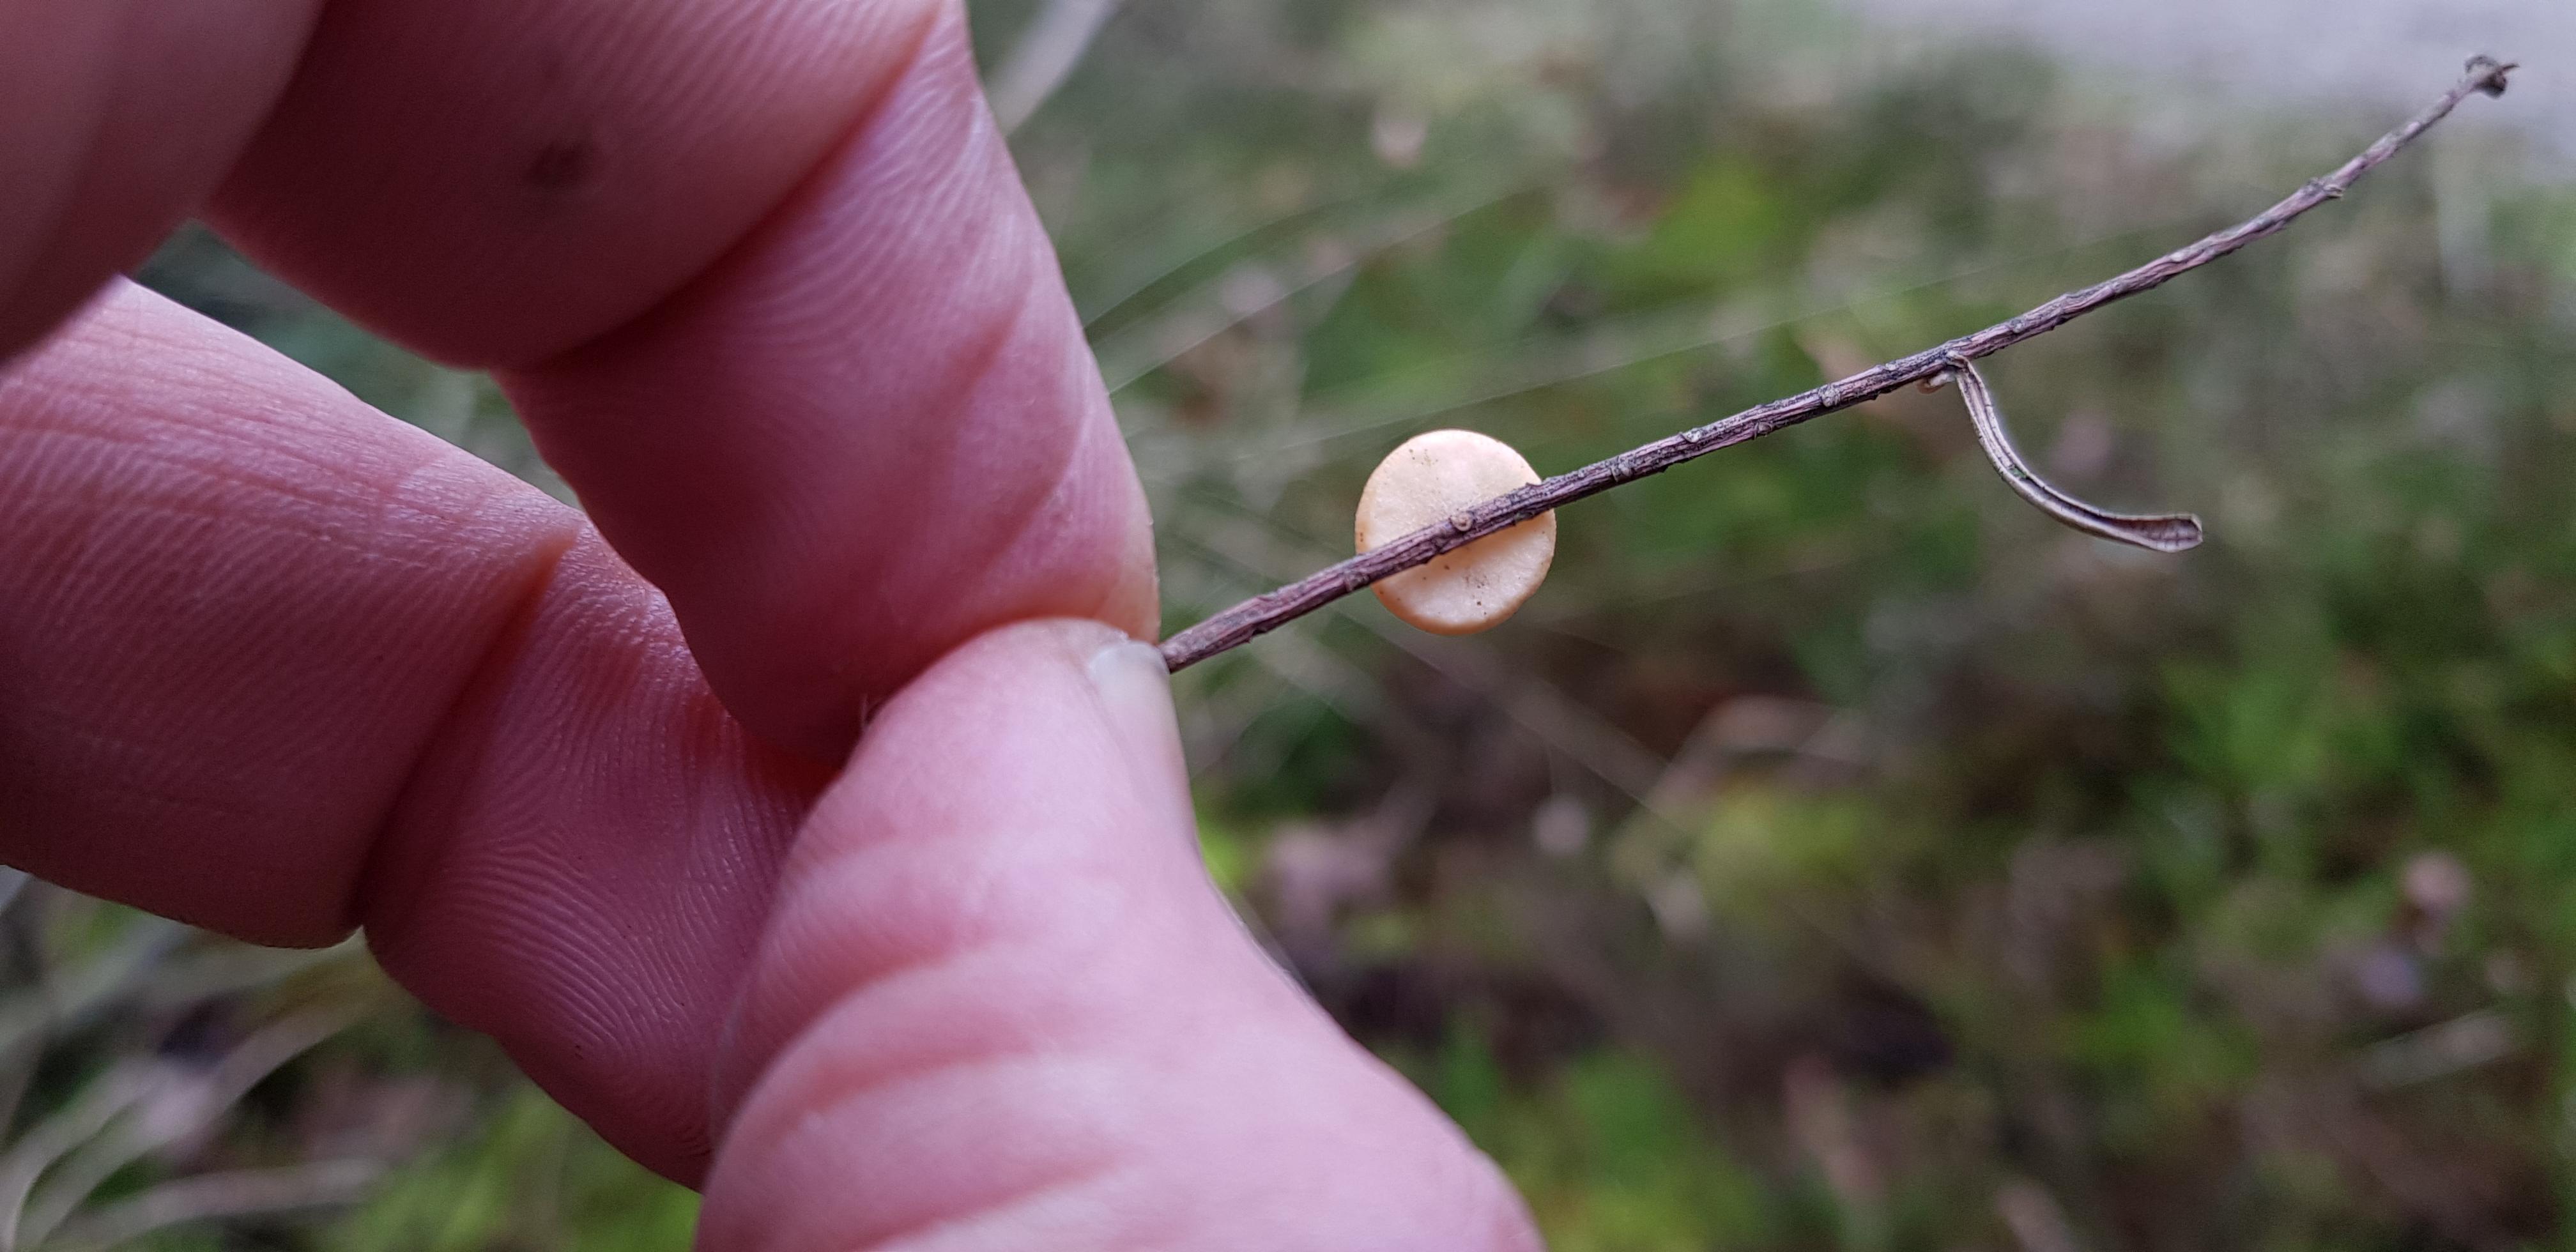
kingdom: Fungi
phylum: Ascomycota
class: Pezizomycetes
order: Pezizales
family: Sarcoscyphaceae
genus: Pithya
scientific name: Pithya vulgaris
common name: stor dukatbæger
